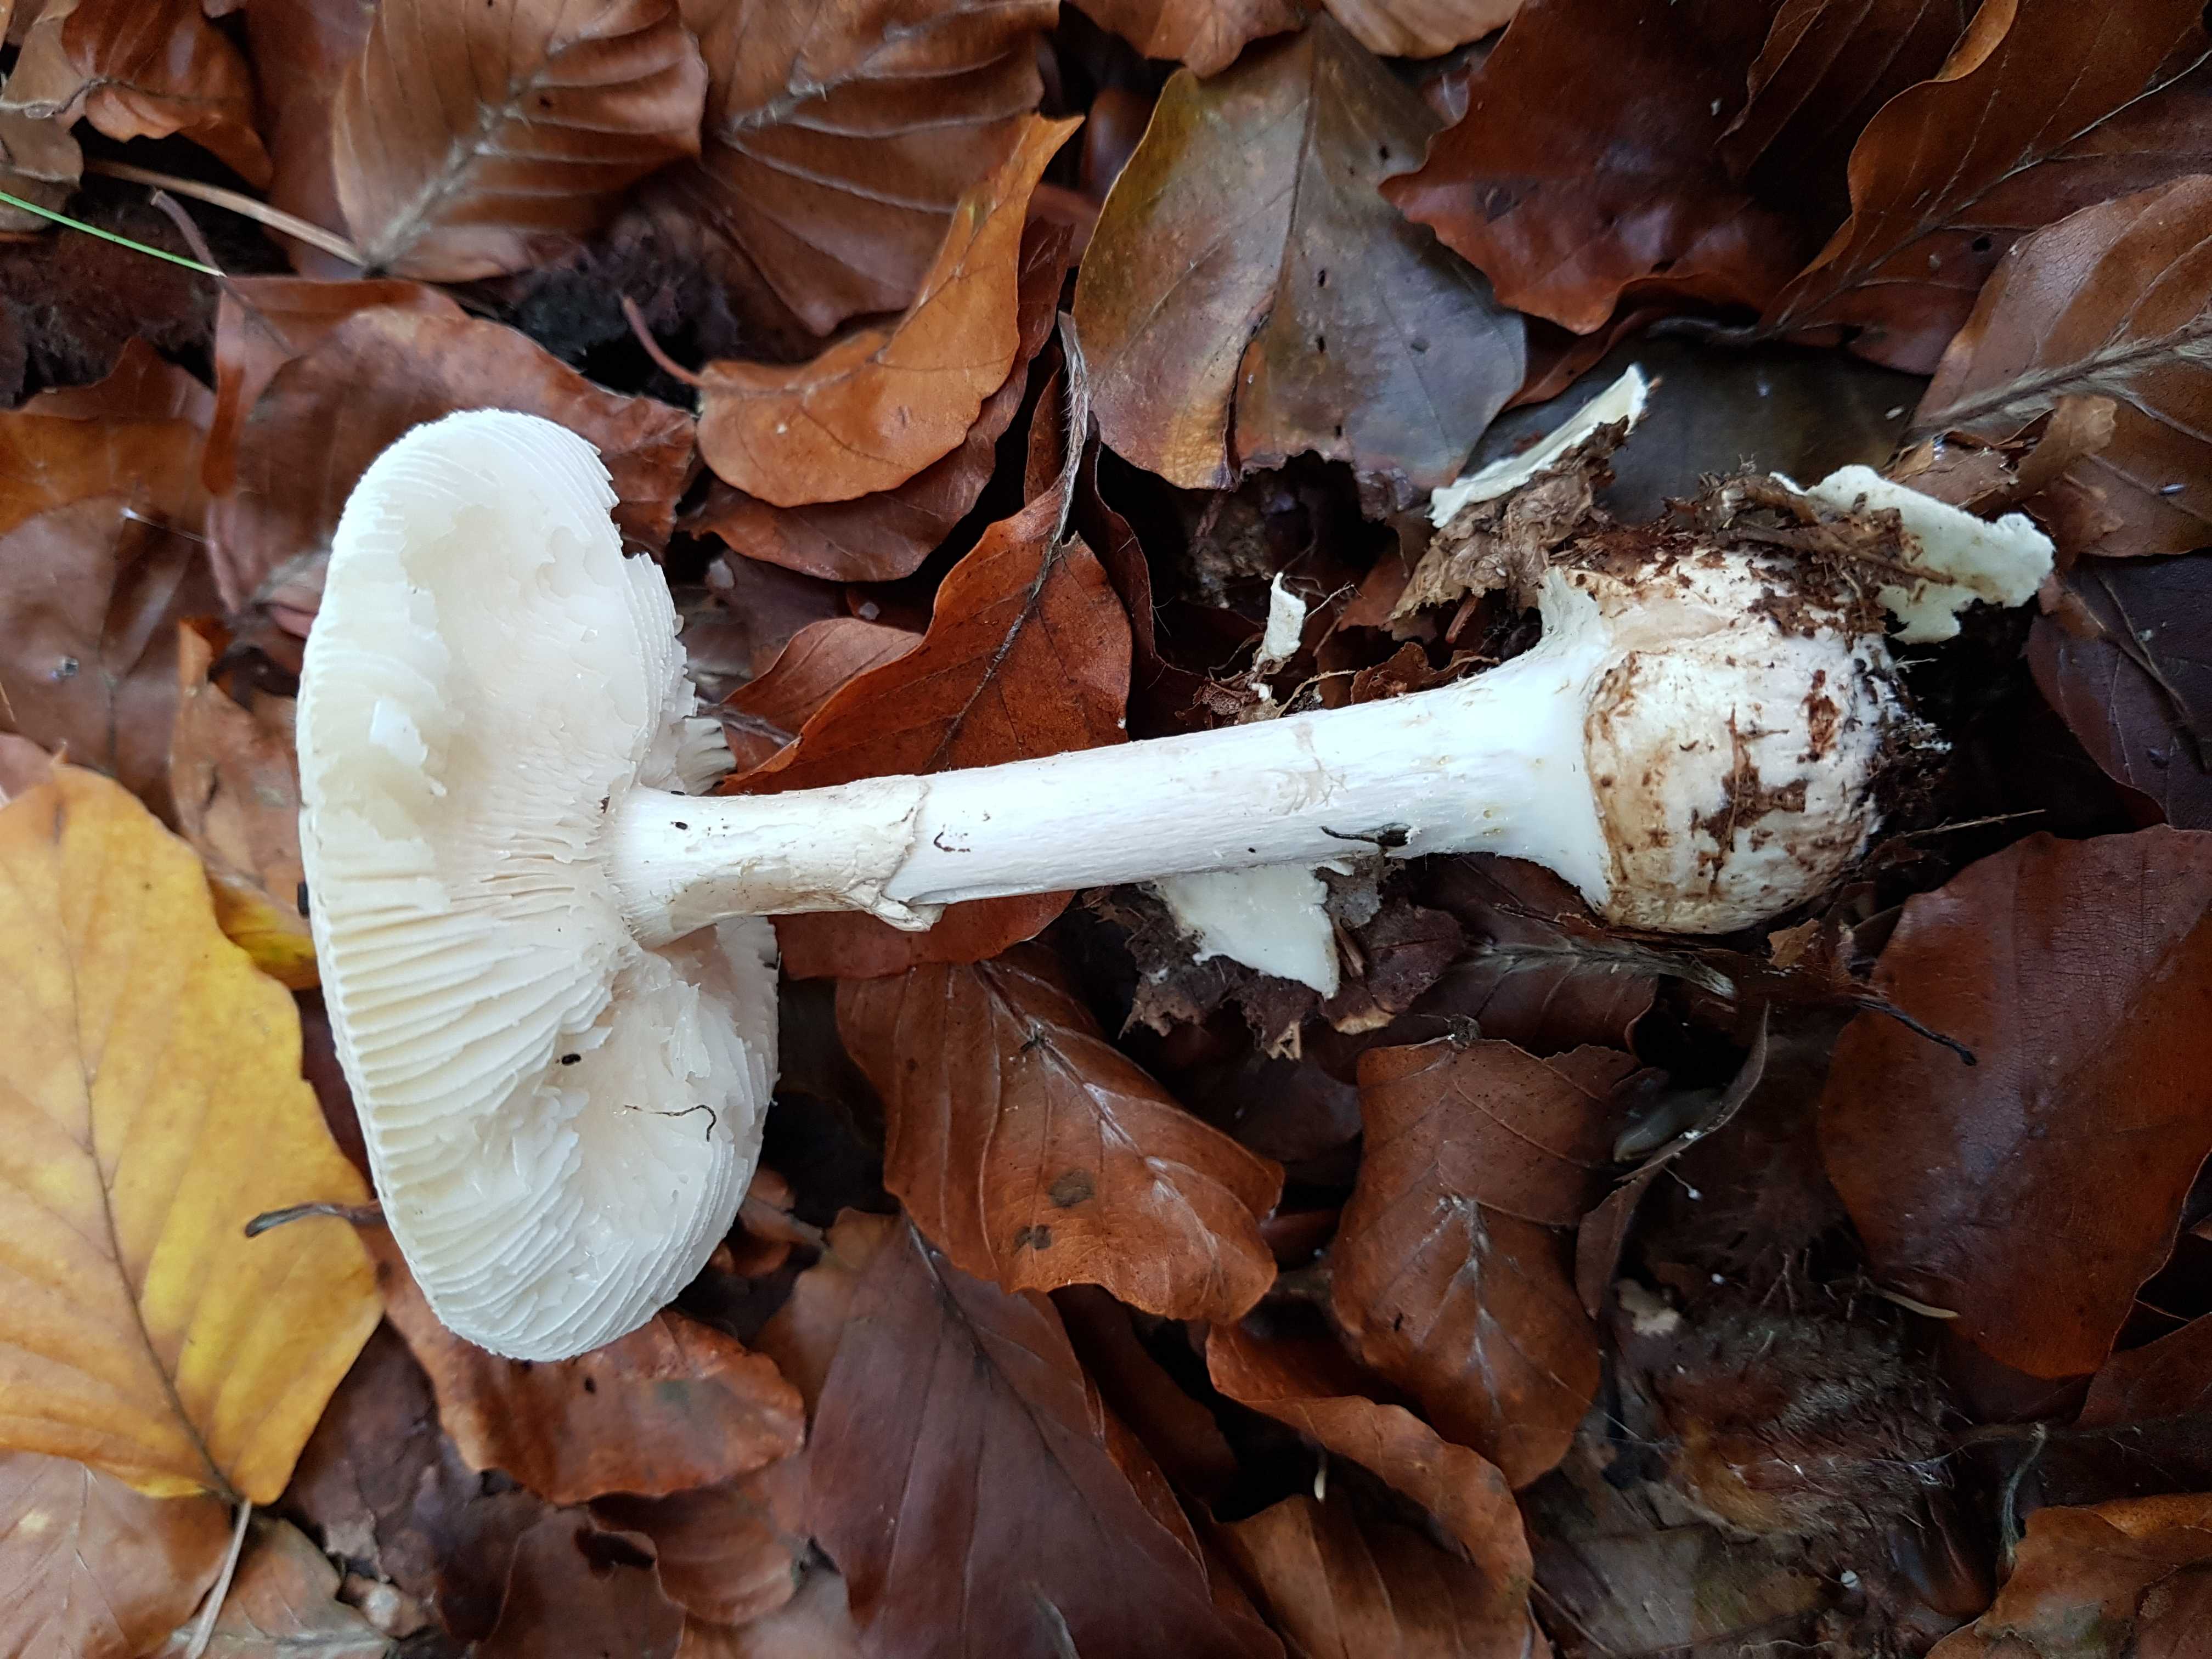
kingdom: Fungi
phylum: Basidiomycota
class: Agaricomycetes
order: Agaricales
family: Amanitaceae
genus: Amanita
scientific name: Amanita citrina
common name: kugleknoldet fluesvamp
